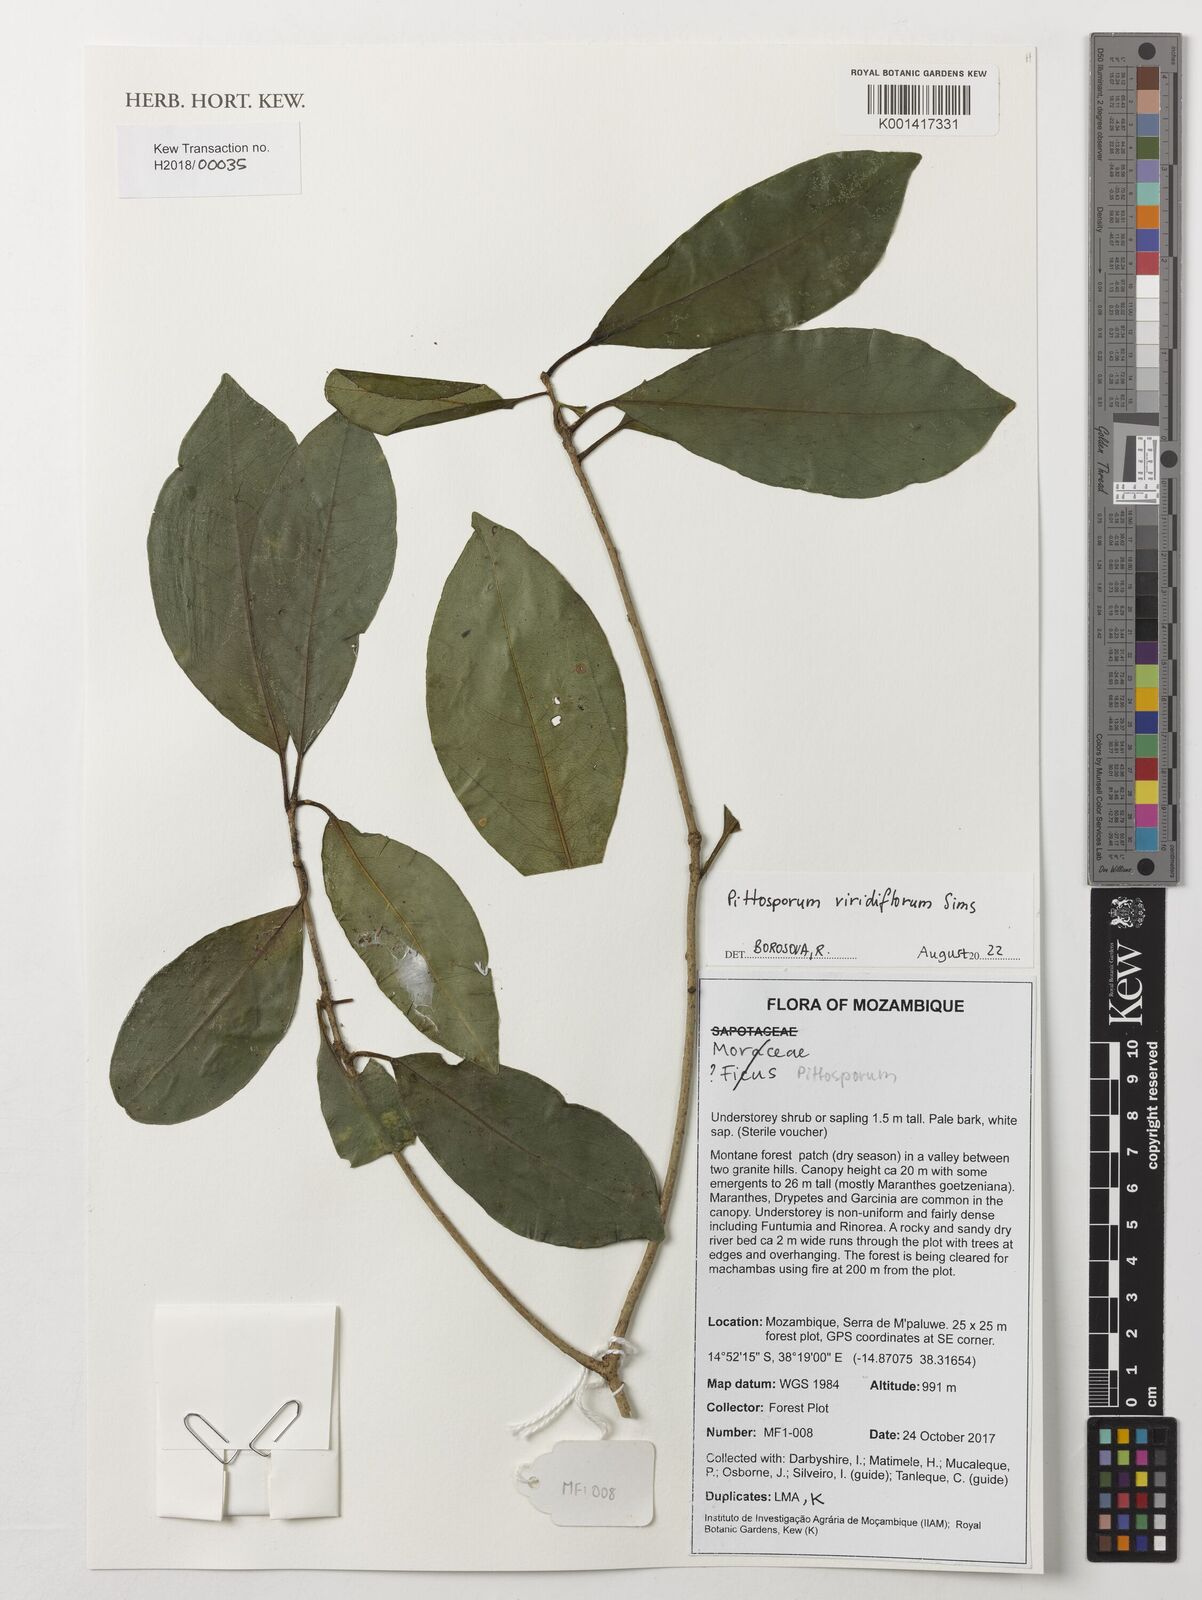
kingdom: Plantae
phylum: Tracheophyta
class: Magnoliopsida
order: Apiales
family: Pittosporaceae
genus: Pittosporum
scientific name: Pittosporum viridiflorum
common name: Cape cheesewood
